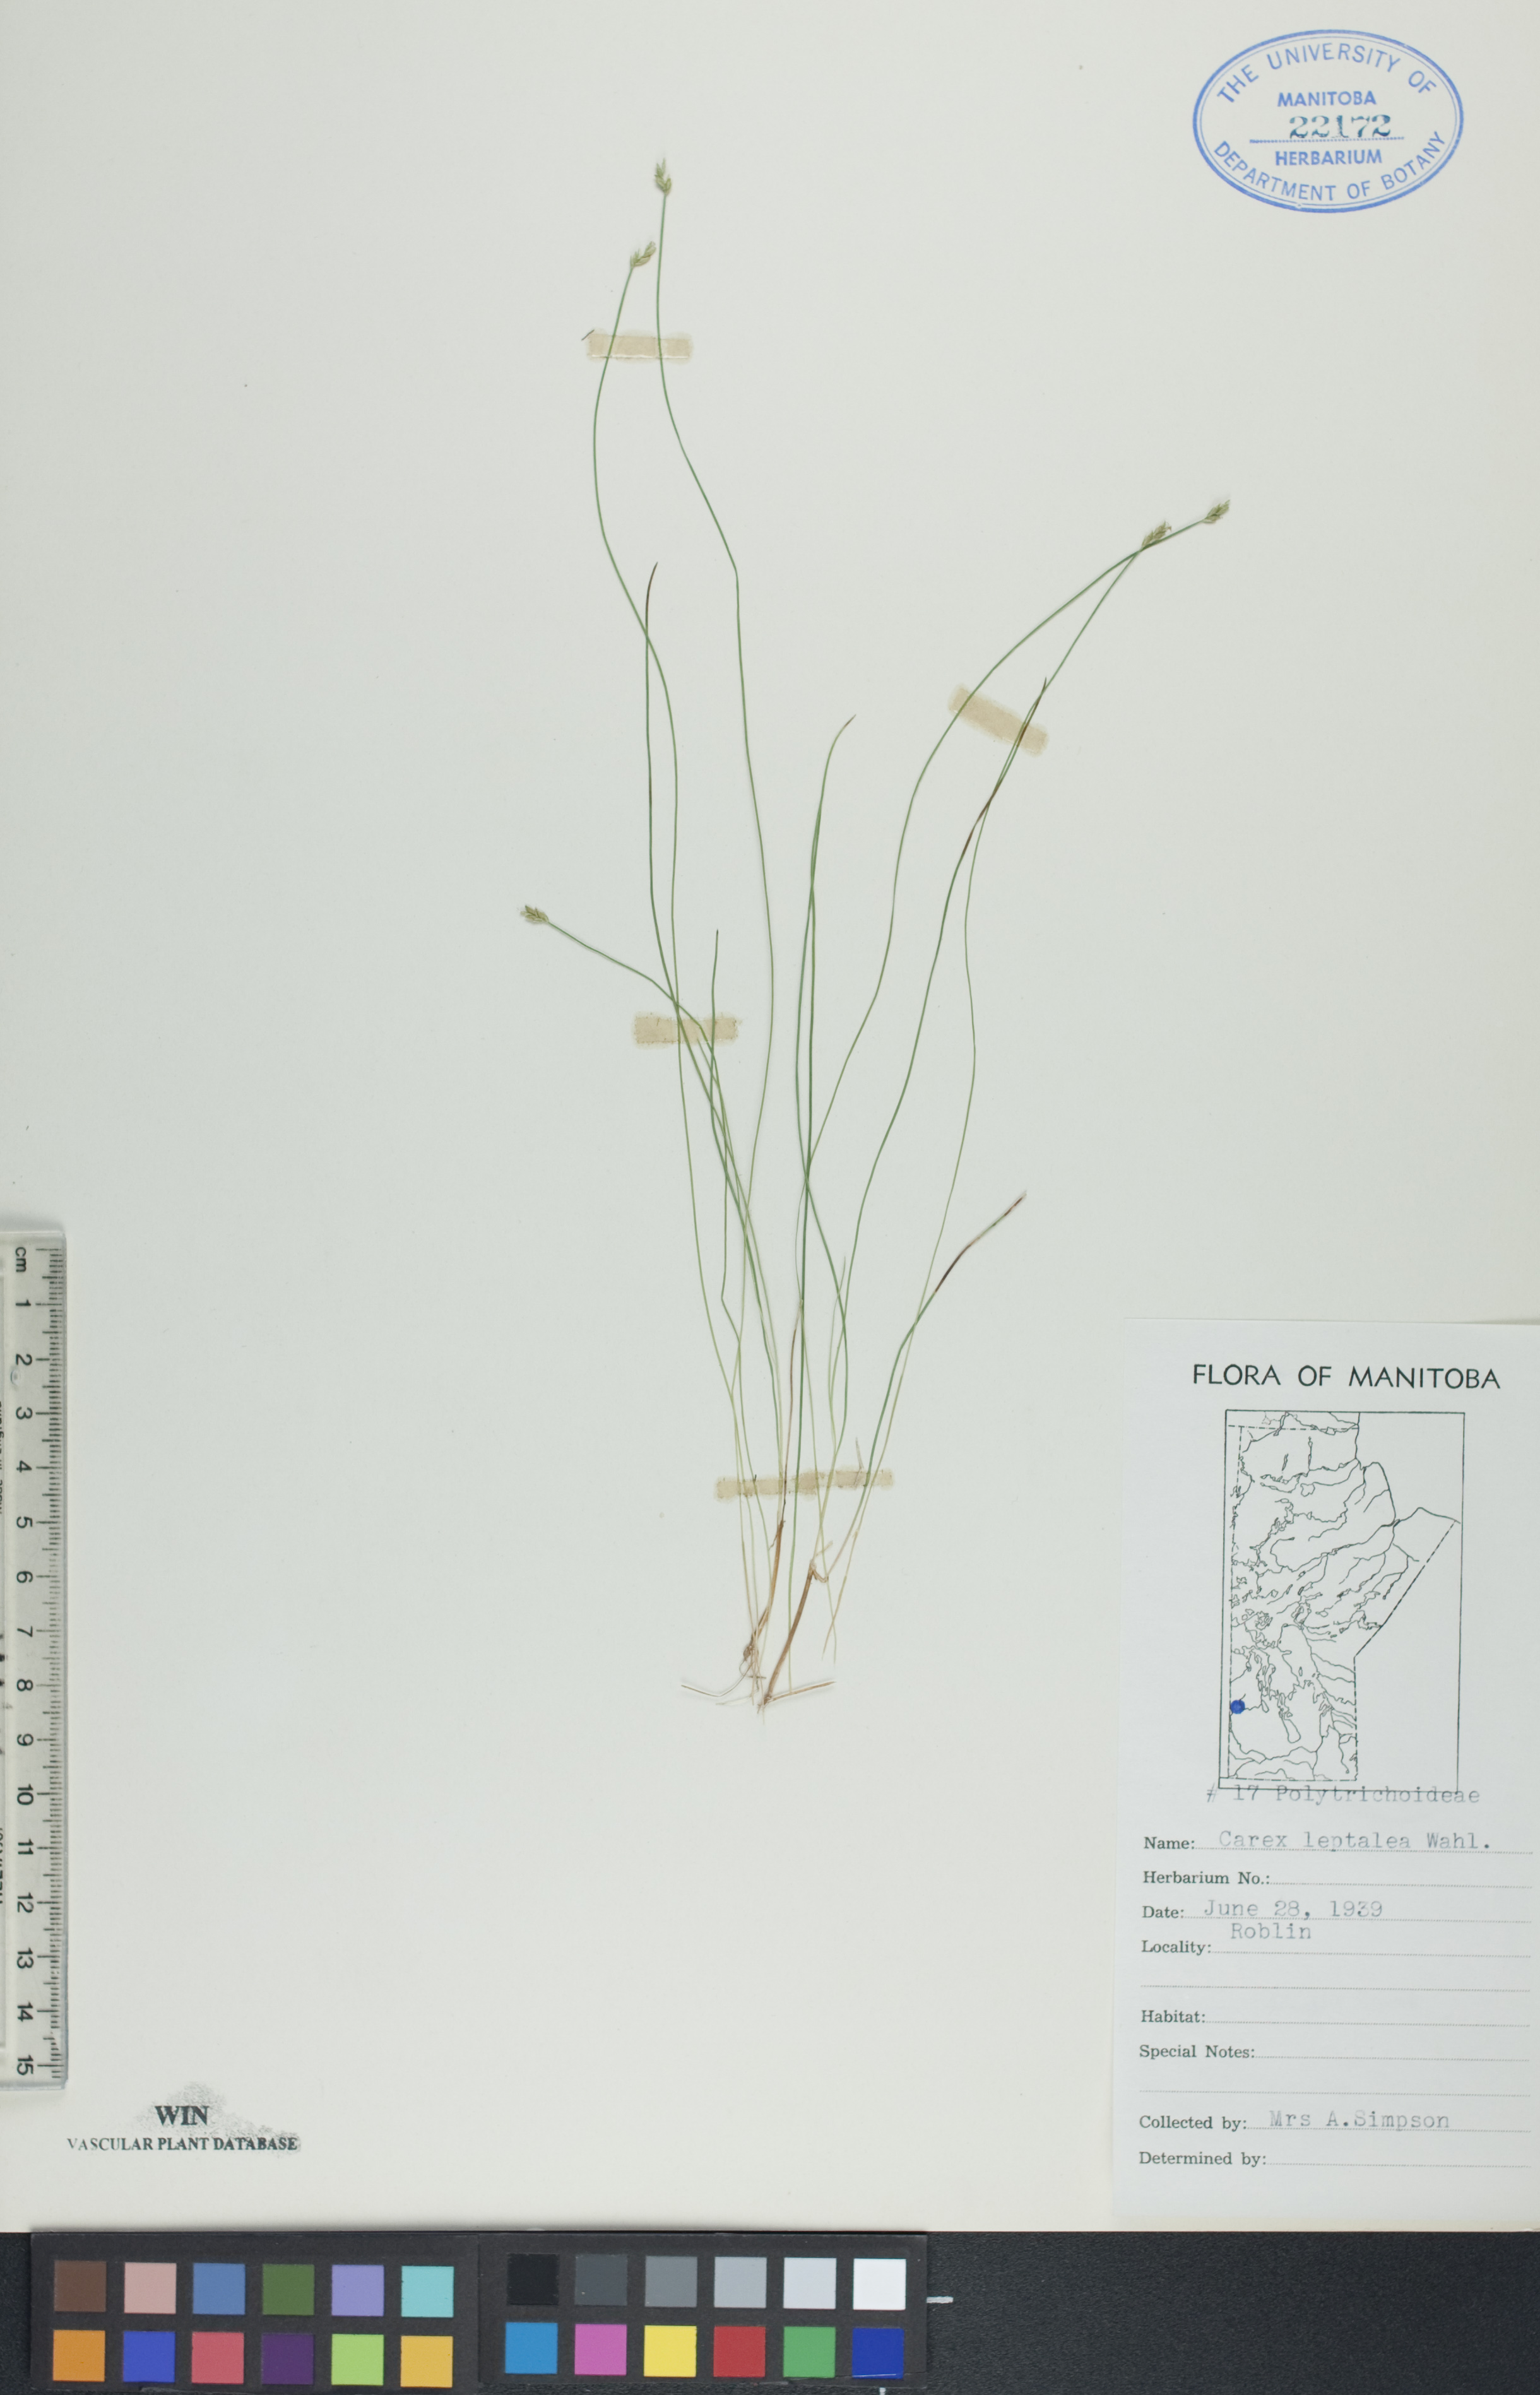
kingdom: Plantae
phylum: Tracheophyta
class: Liliopsida
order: Poales
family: Cyperaceae
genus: Carex
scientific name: Carex leptalea
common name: Bristly-stalked sedge
